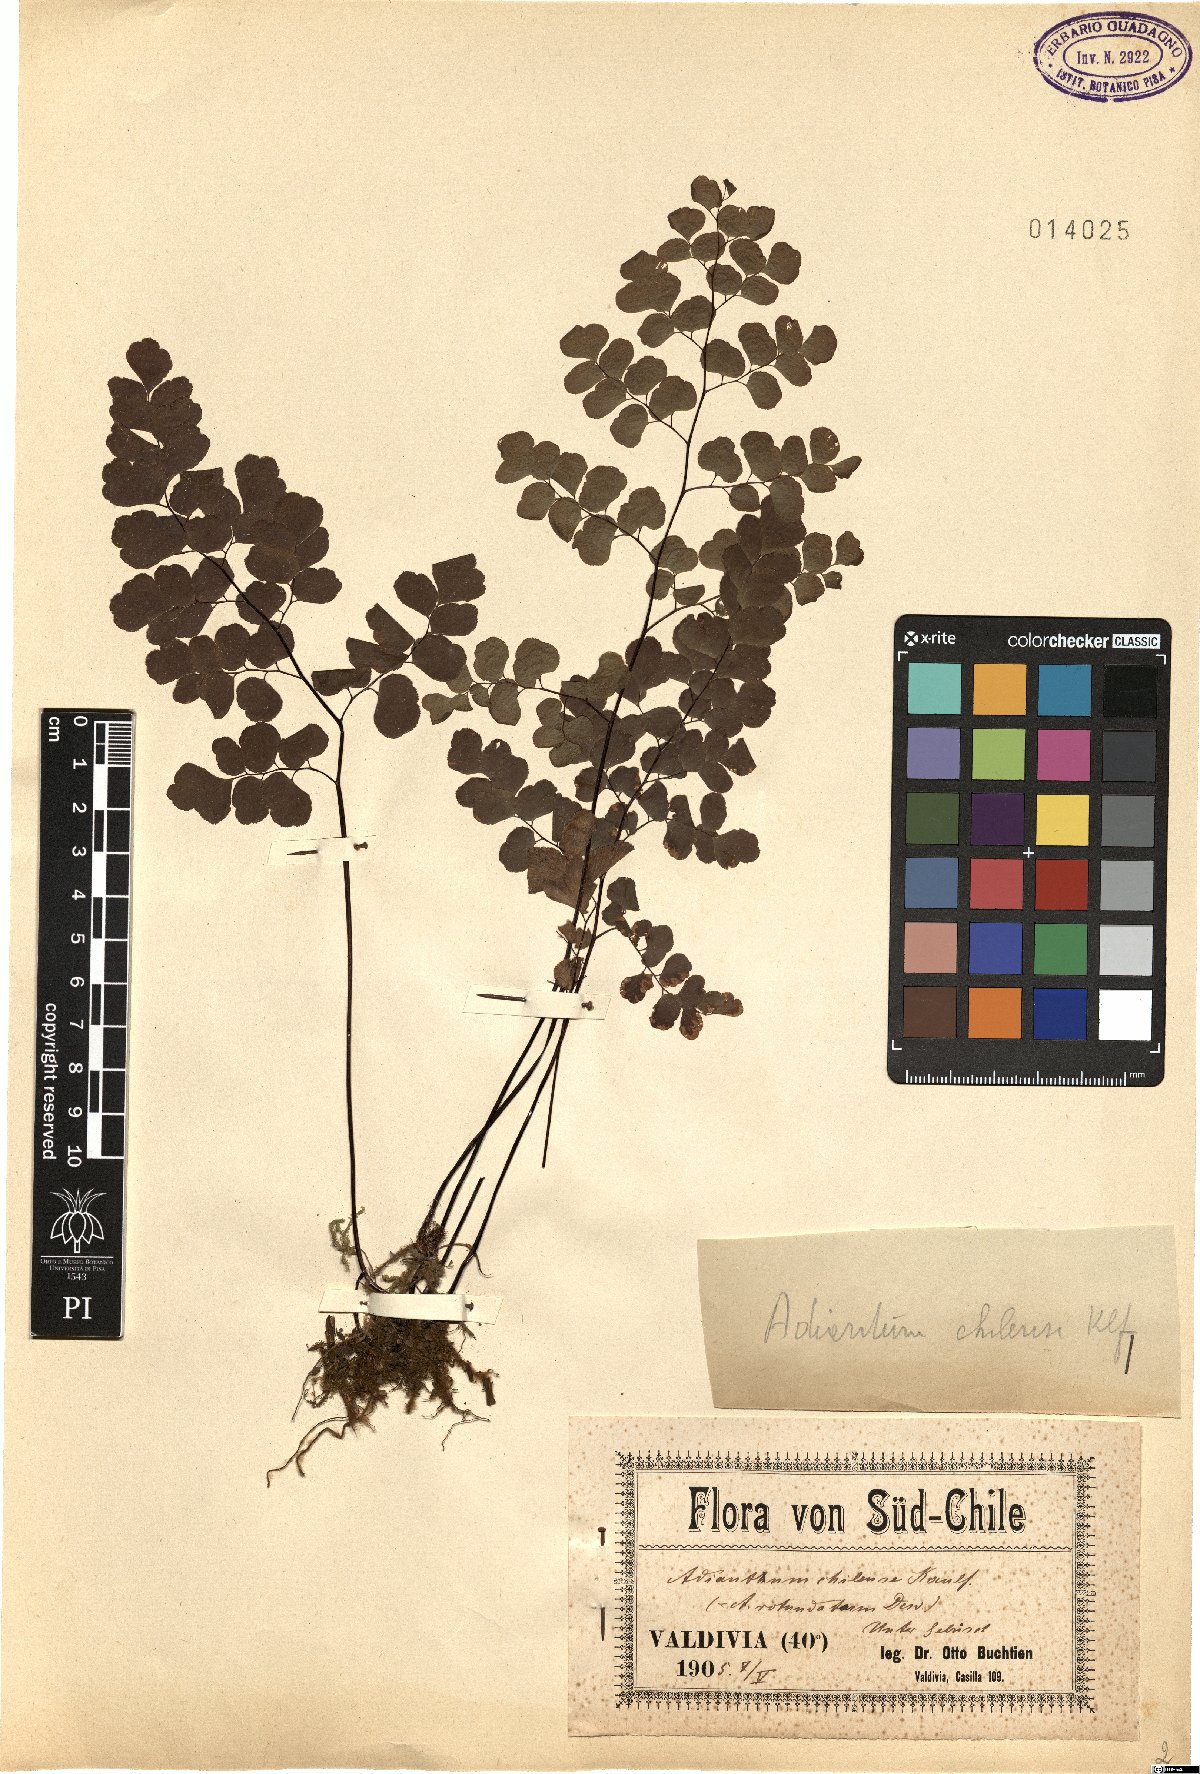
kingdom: Plantae
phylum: Tracheophyta
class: Polypodiopsida
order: Polypodiales
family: Pteridaceae
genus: Adiantum
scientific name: Adiantum chilense
